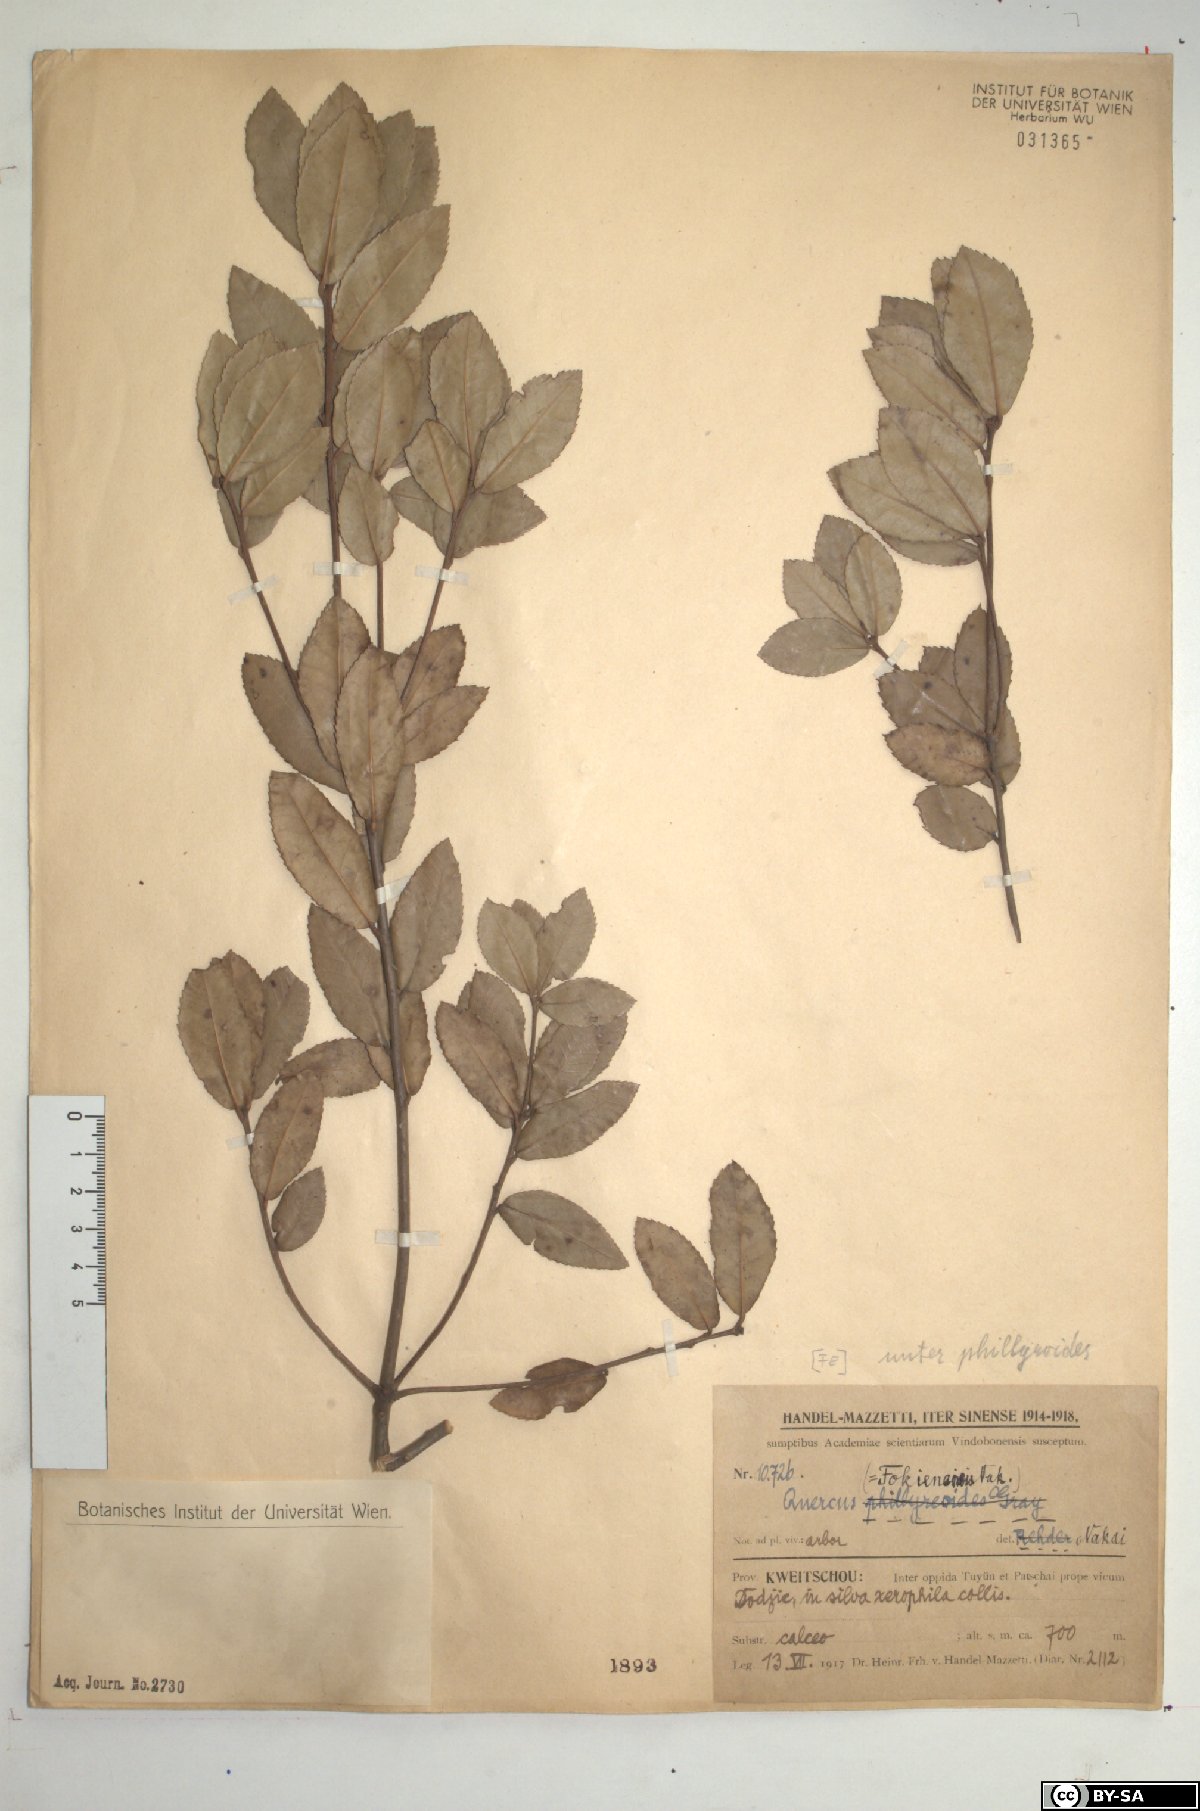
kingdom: Plantae
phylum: Tracheophyta
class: Magnoliopsida
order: Fagales
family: Fagaceae
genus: Quercus
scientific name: Quercus phillyraeoides
